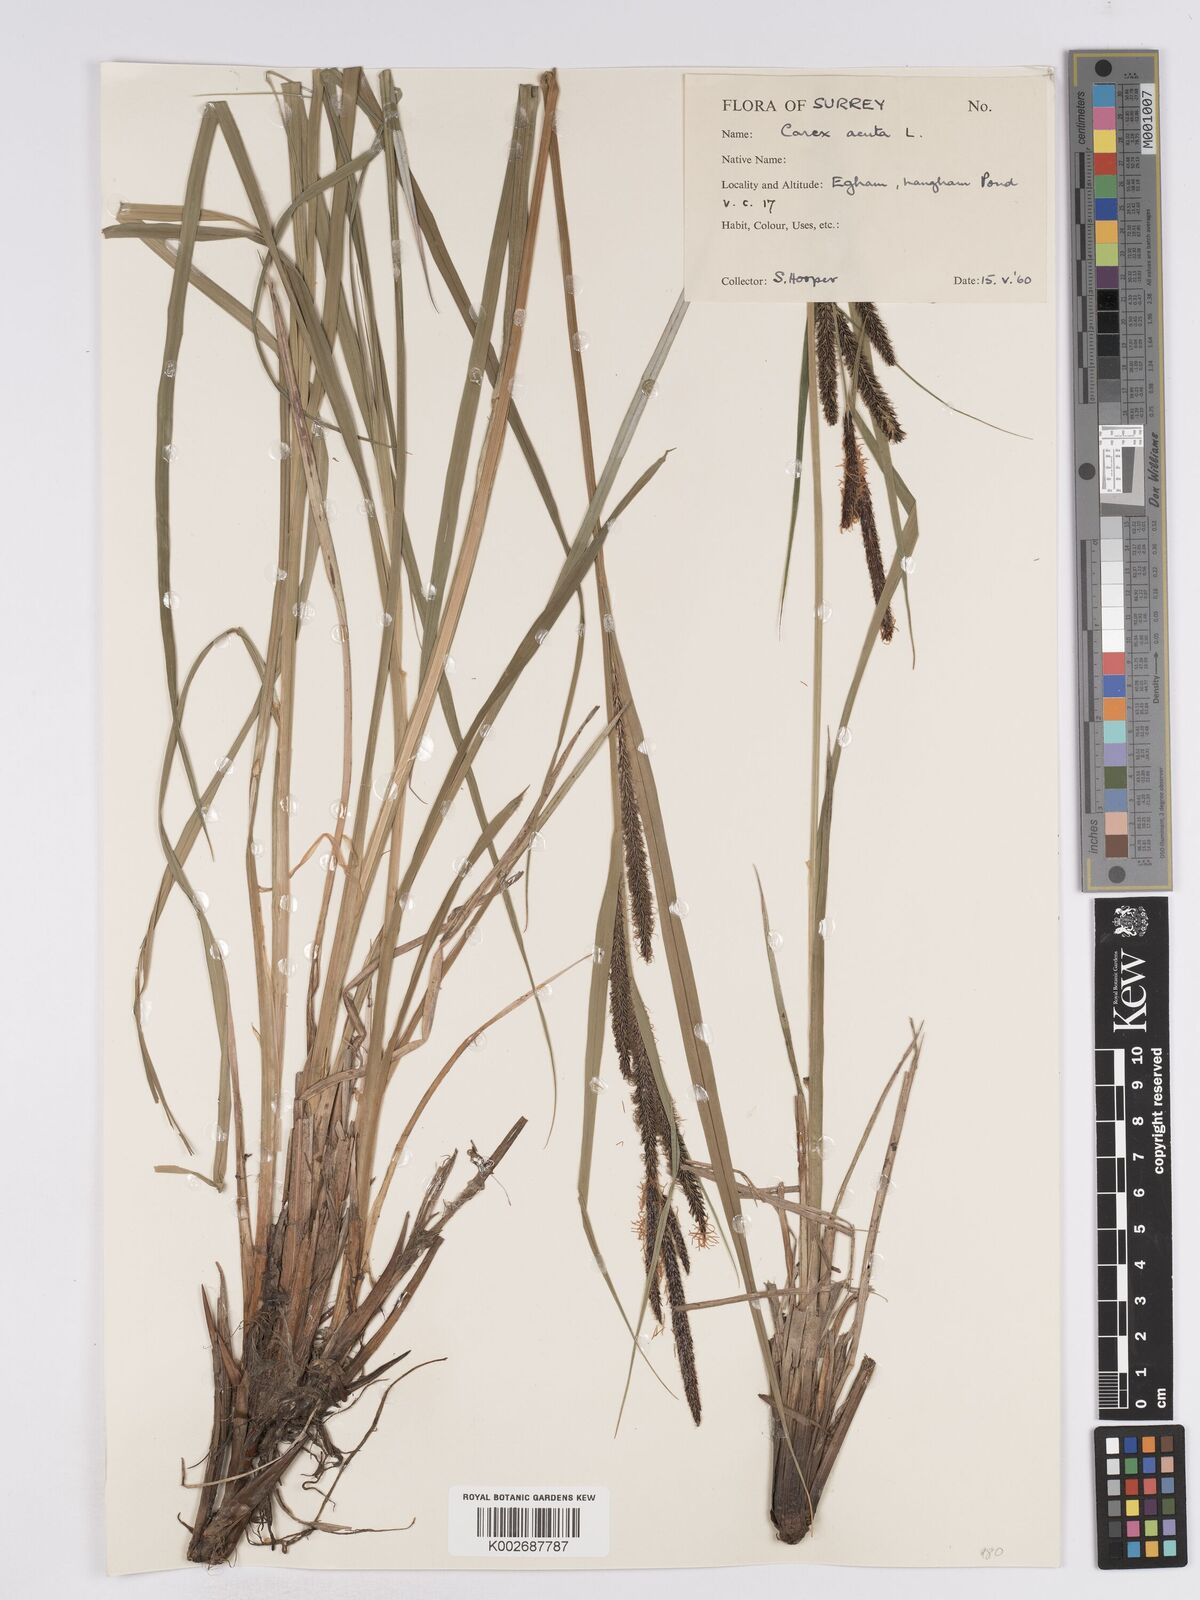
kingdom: Plantae
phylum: Tracheophyta
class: Liliopsida
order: Poales
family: Cyperaceae
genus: Carex
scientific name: Carex acuta
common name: Slender tufted-sedge
